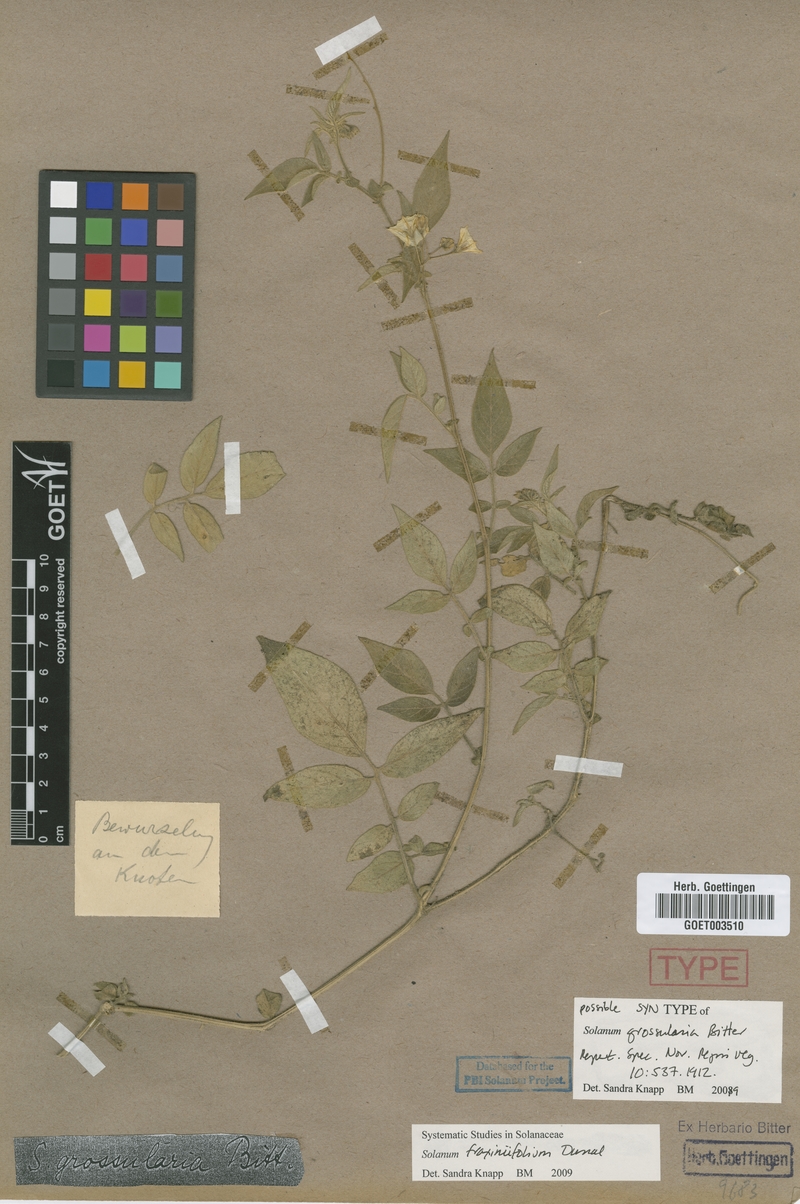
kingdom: Plantae
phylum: Tracheophyta
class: Magnoliopsida
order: Solanales
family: Solanaceae
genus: Solanum
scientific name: Solanum fraxinifolium
